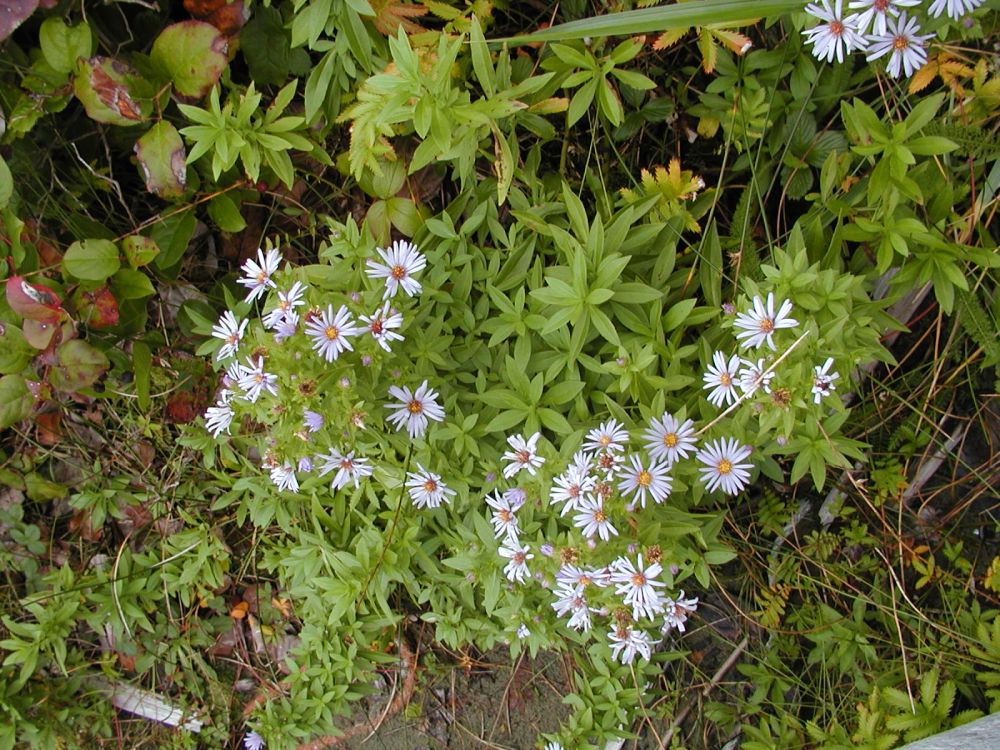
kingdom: Plantae
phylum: Tracheophyta
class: Magnoliopsida
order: Asterales
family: Asteraceae
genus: Symphyotrichum
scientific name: Symphyotrichum chilense
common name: Pacific aster
